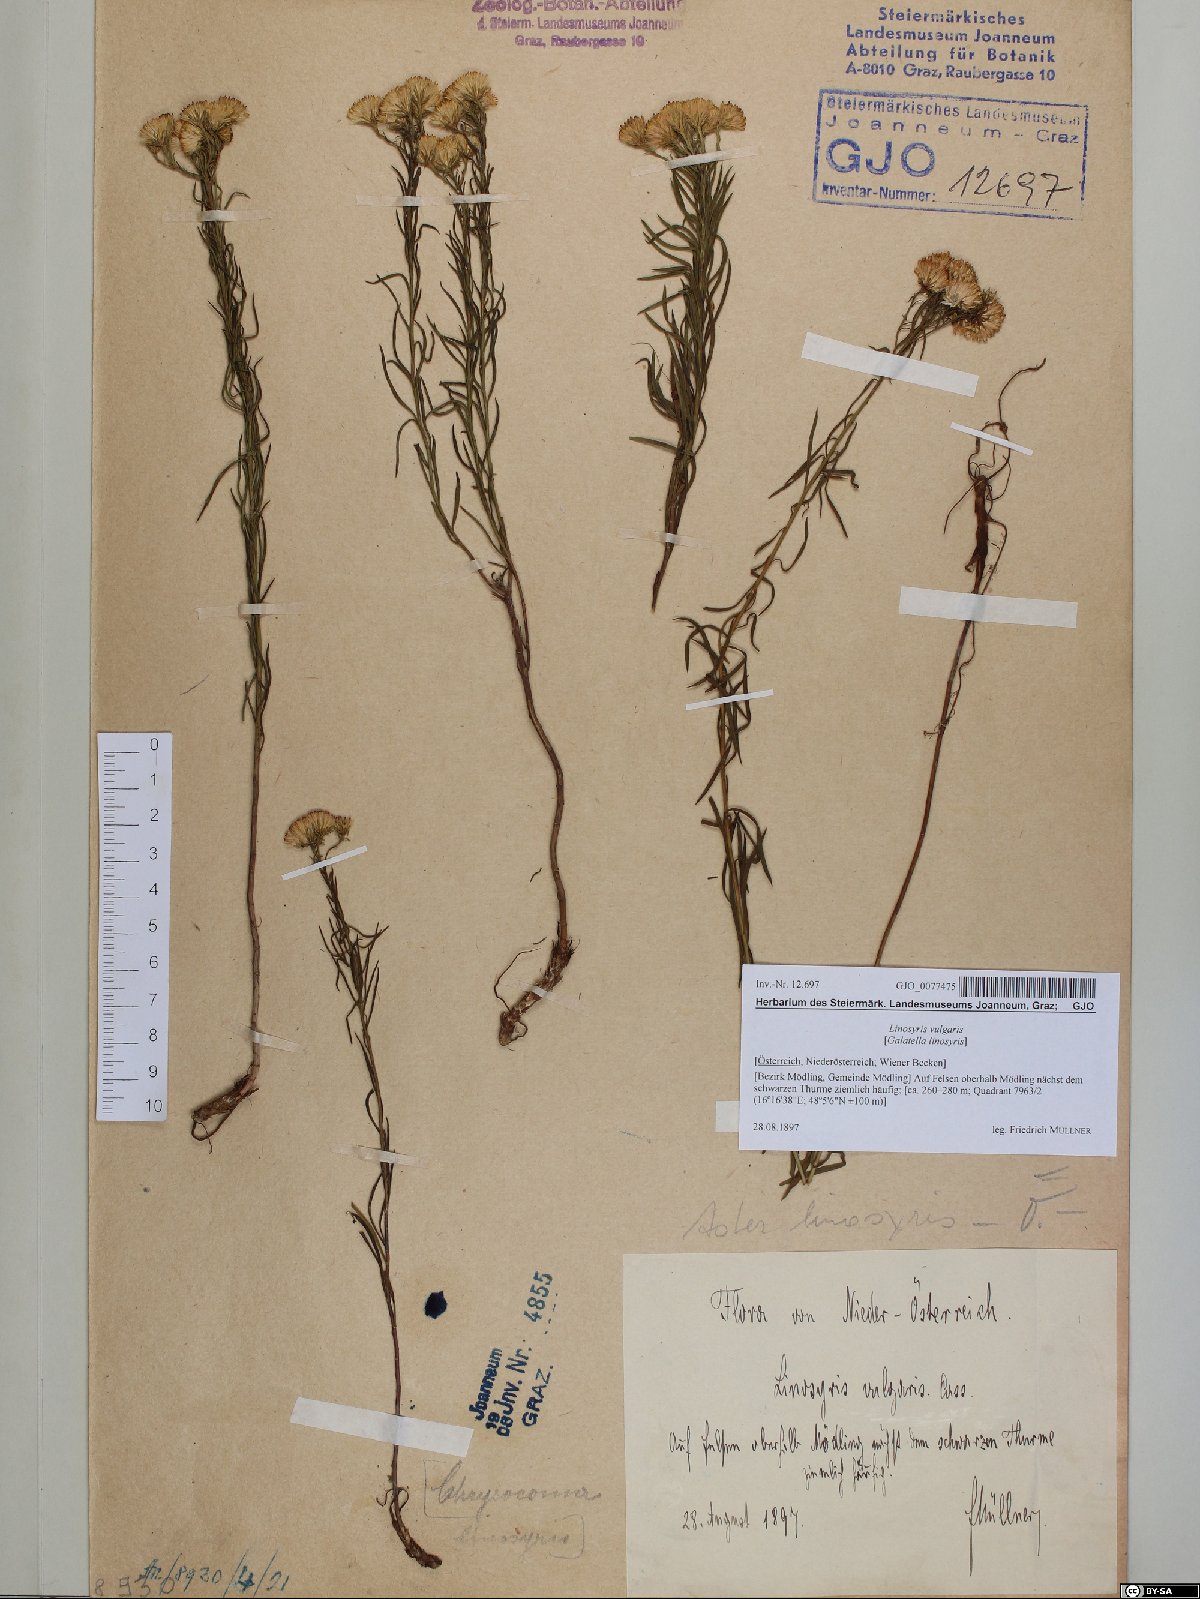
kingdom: Plantae
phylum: Tracheophyta
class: Magnoliopsida
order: Asterales
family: Asteraceae
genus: Galatella
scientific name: Galatella linosyris
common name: Goldilocks aster
